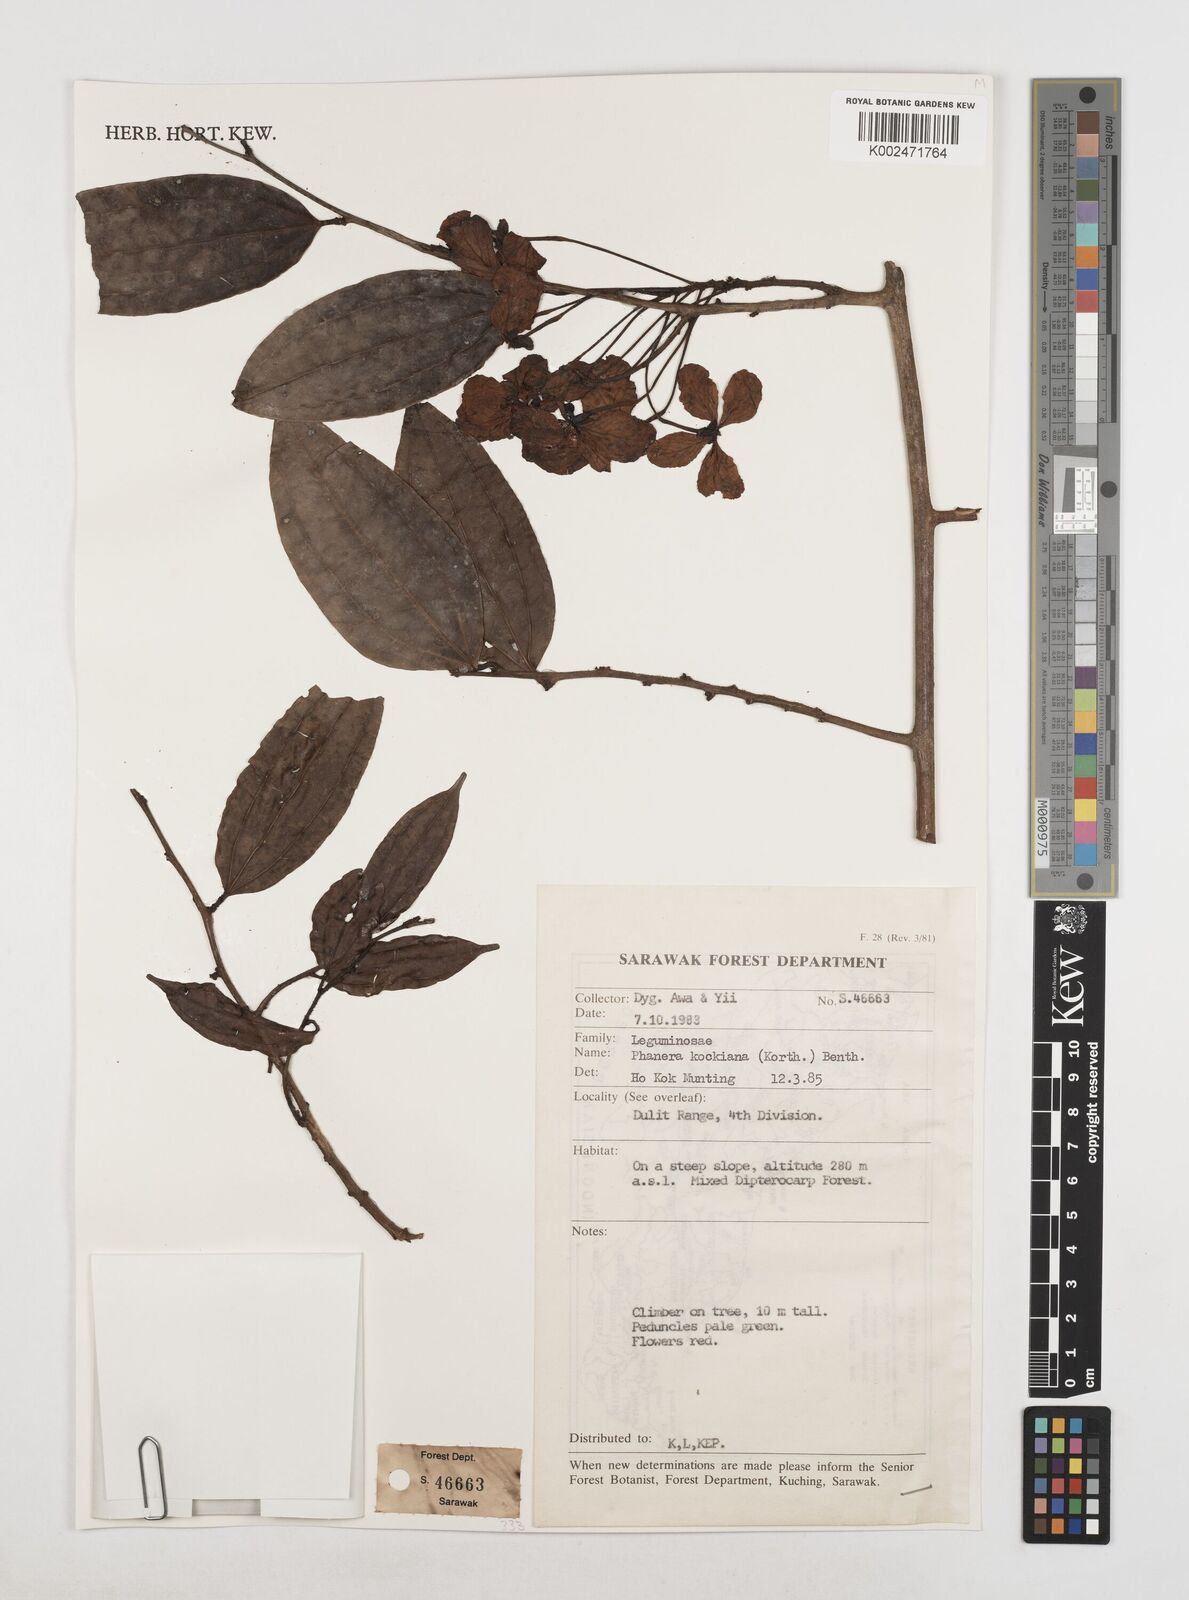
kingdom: Plantae
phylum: Tracheophyta
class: Magnoliopsida
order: Fabales
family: Fabaceae
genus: Phanera
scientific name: Phanera kockiana
